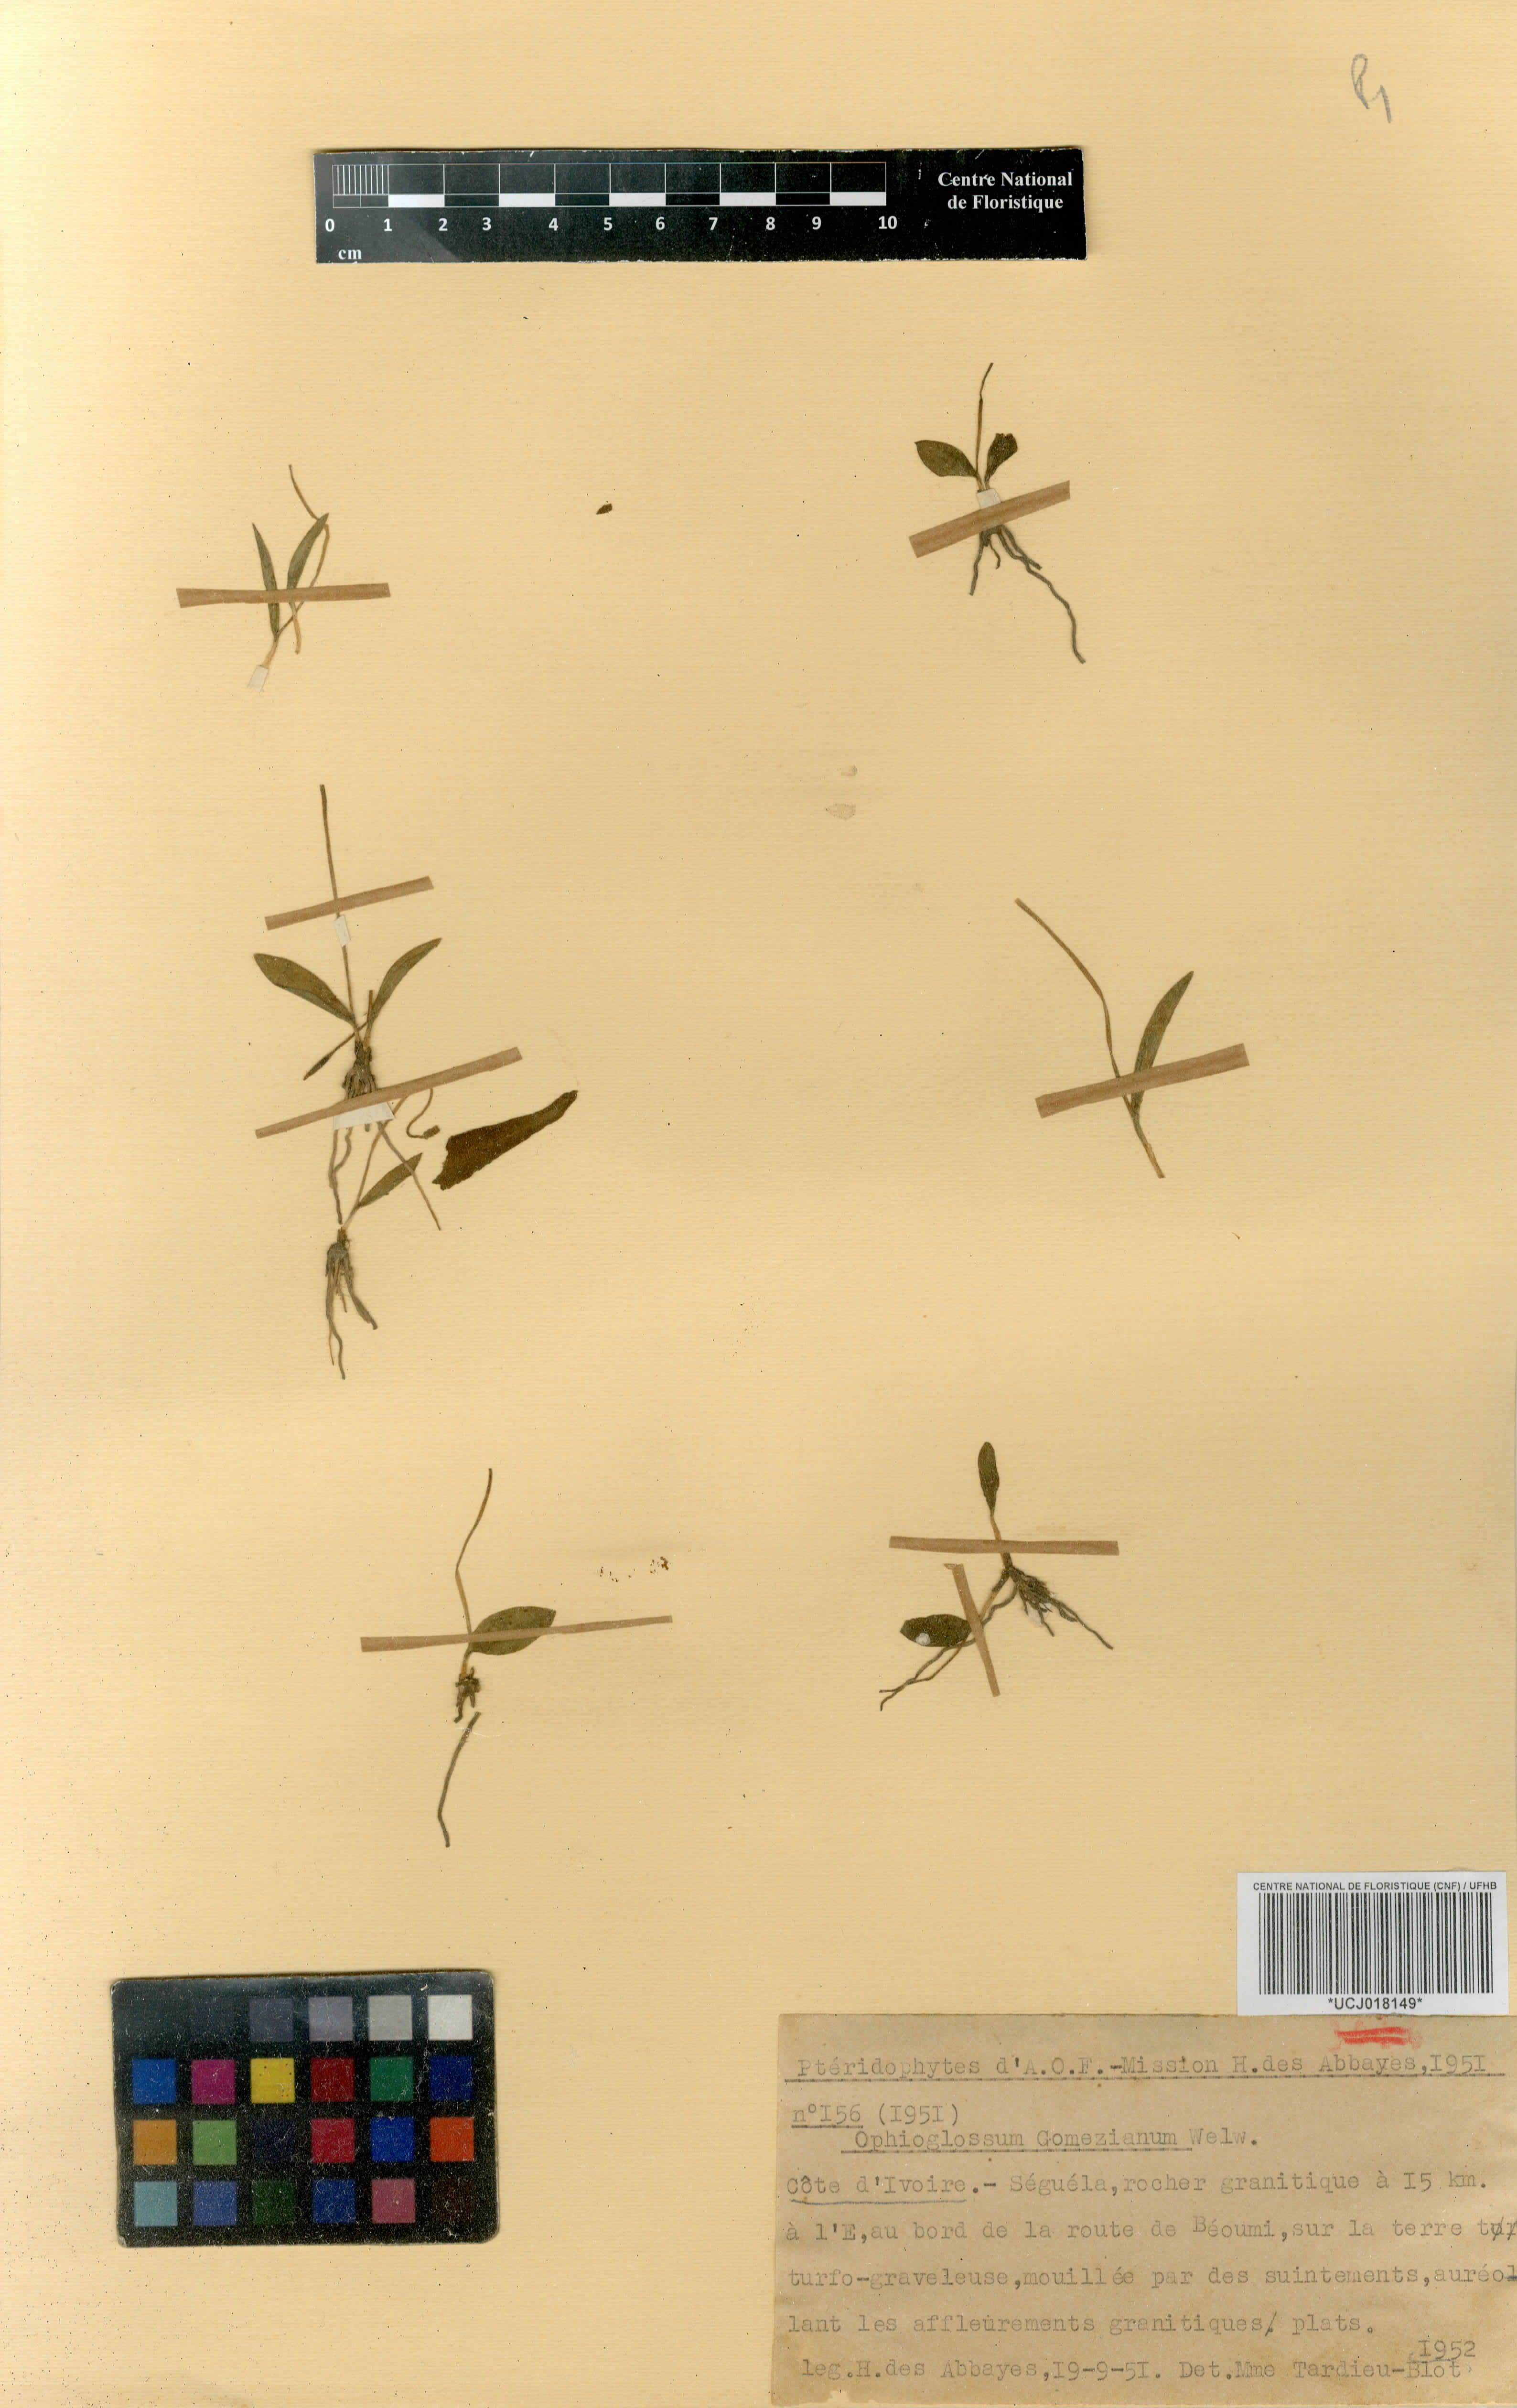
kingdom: Plantae
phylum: Tracheophyta
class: Polypodiopsida
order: Ophioglossales
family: Ophioglossaceae
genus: Ophioglossum
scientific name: Ophioglossum gomezianum
